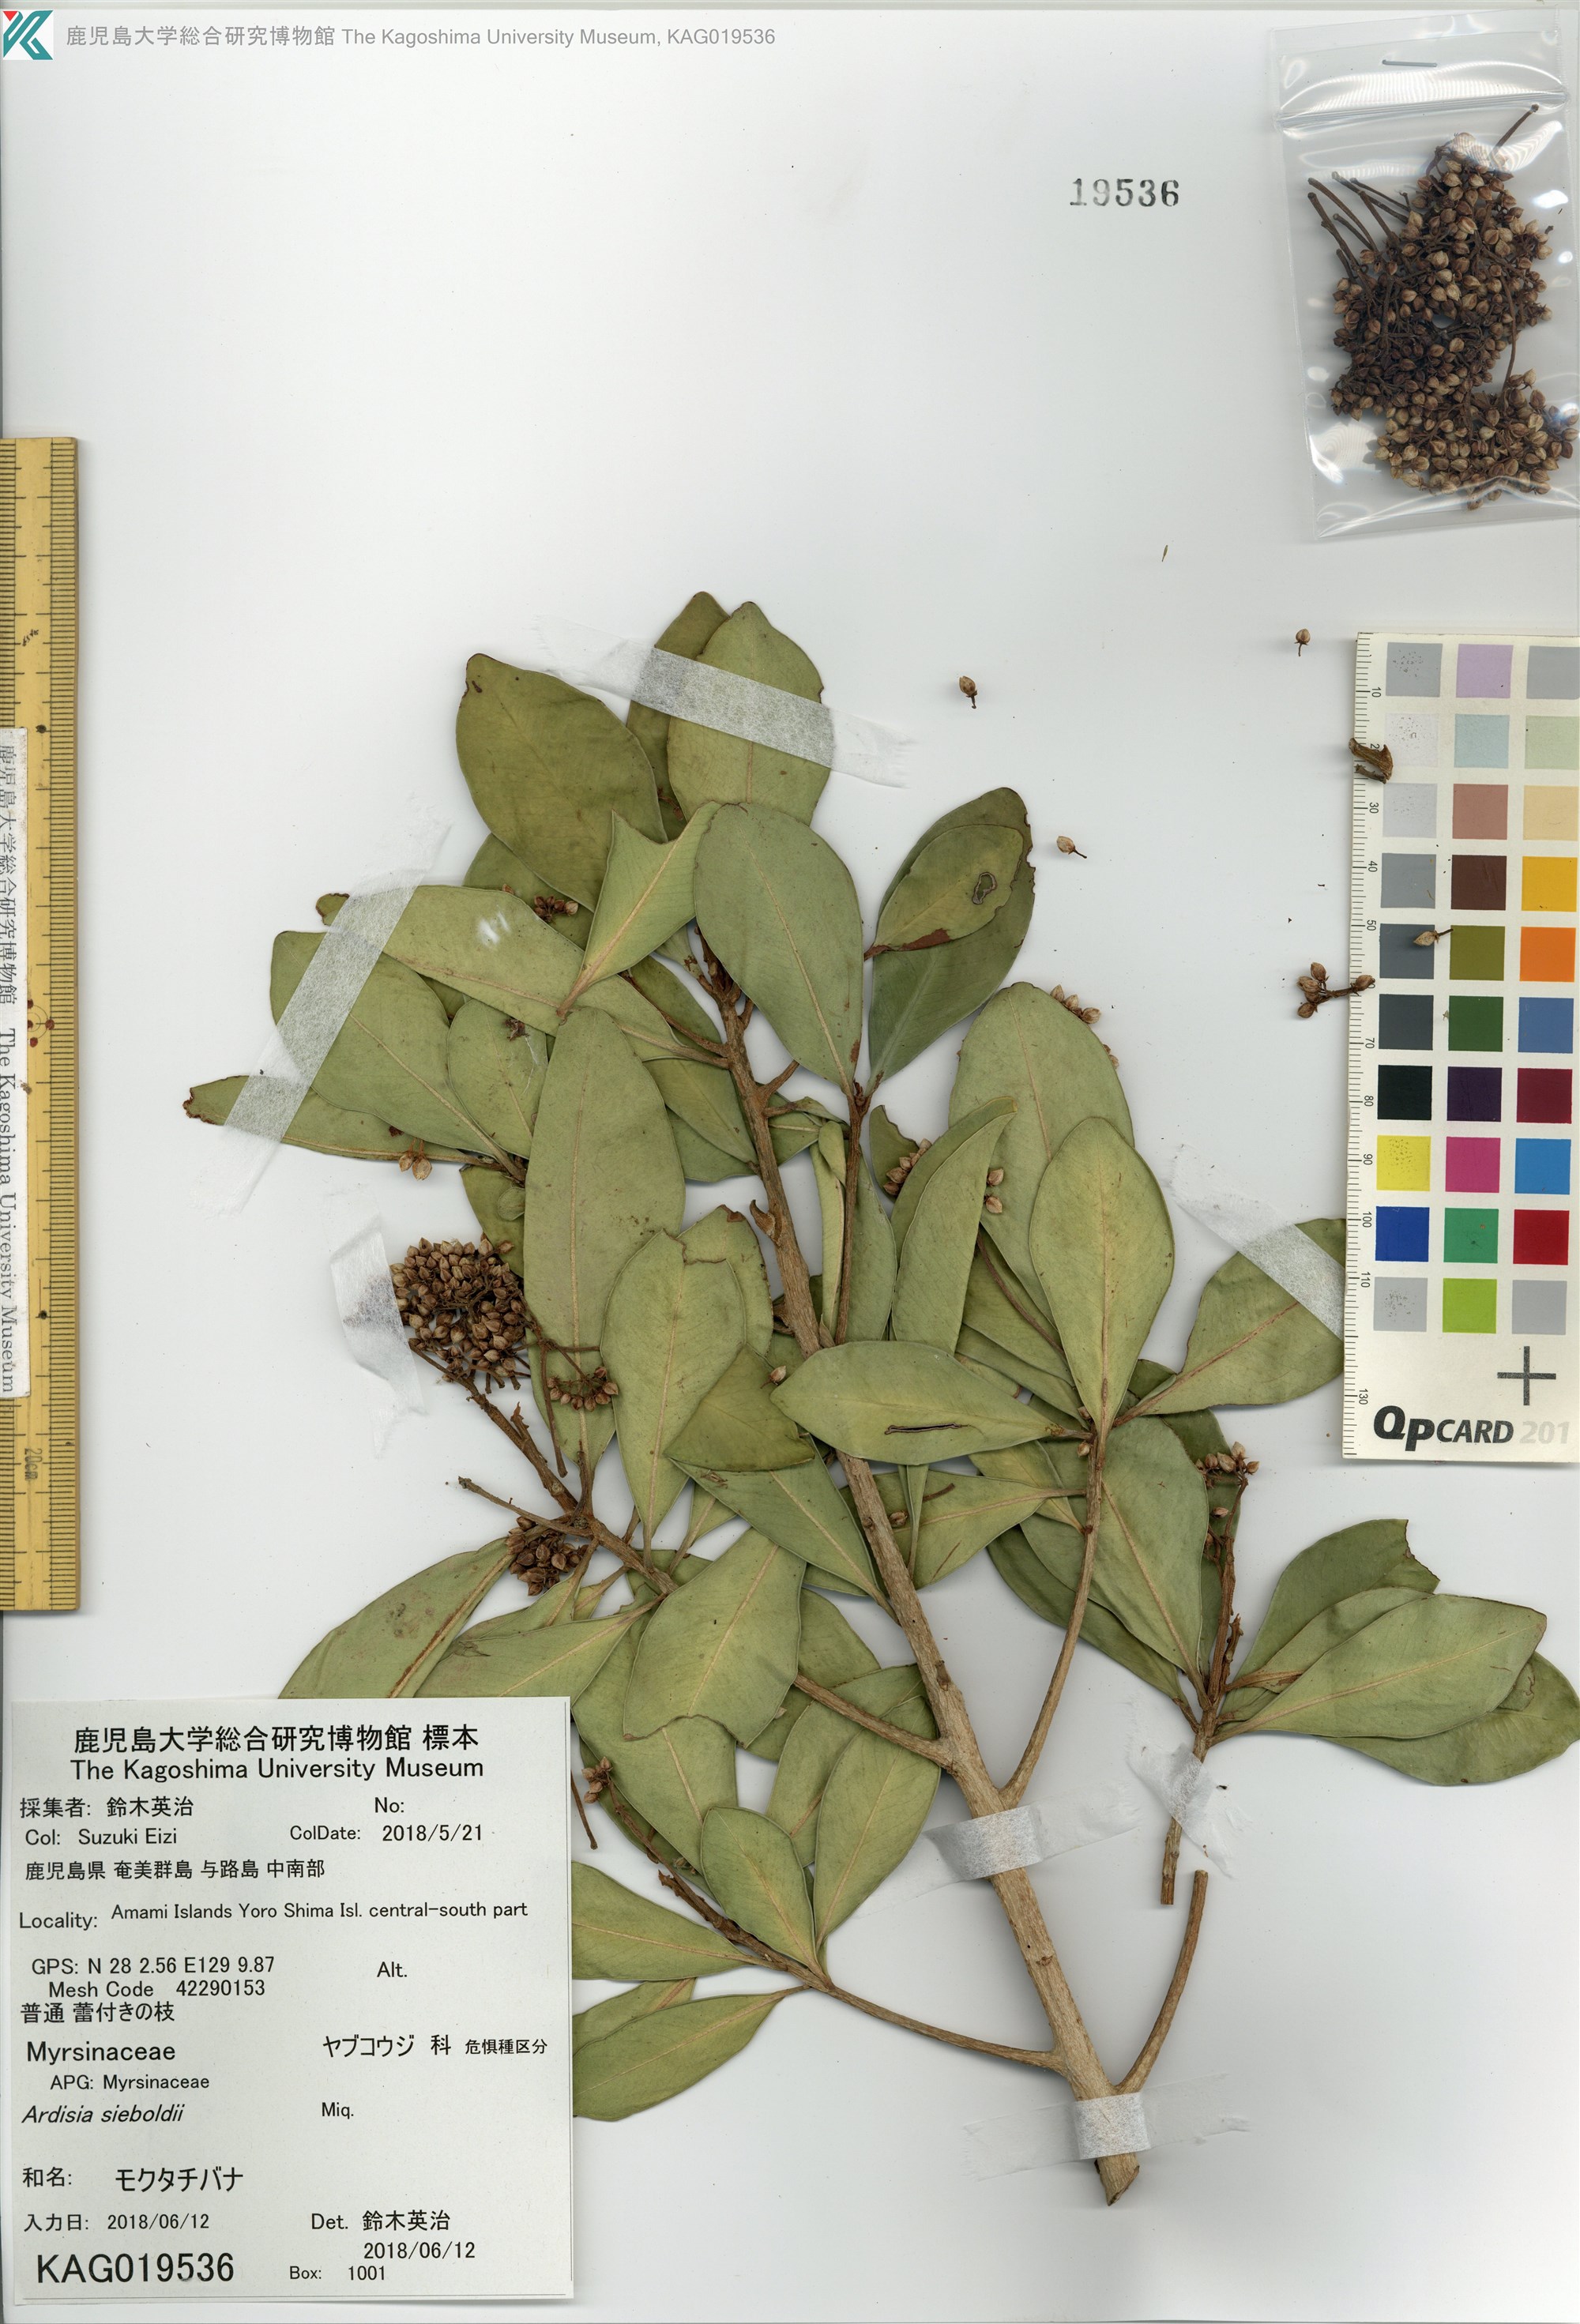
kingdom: Plantae
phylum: Tracheophyta
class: Magnoliopsida
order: Ericales
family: Primulaceae
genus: Ardisia
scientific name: Ardisia sieboldii
